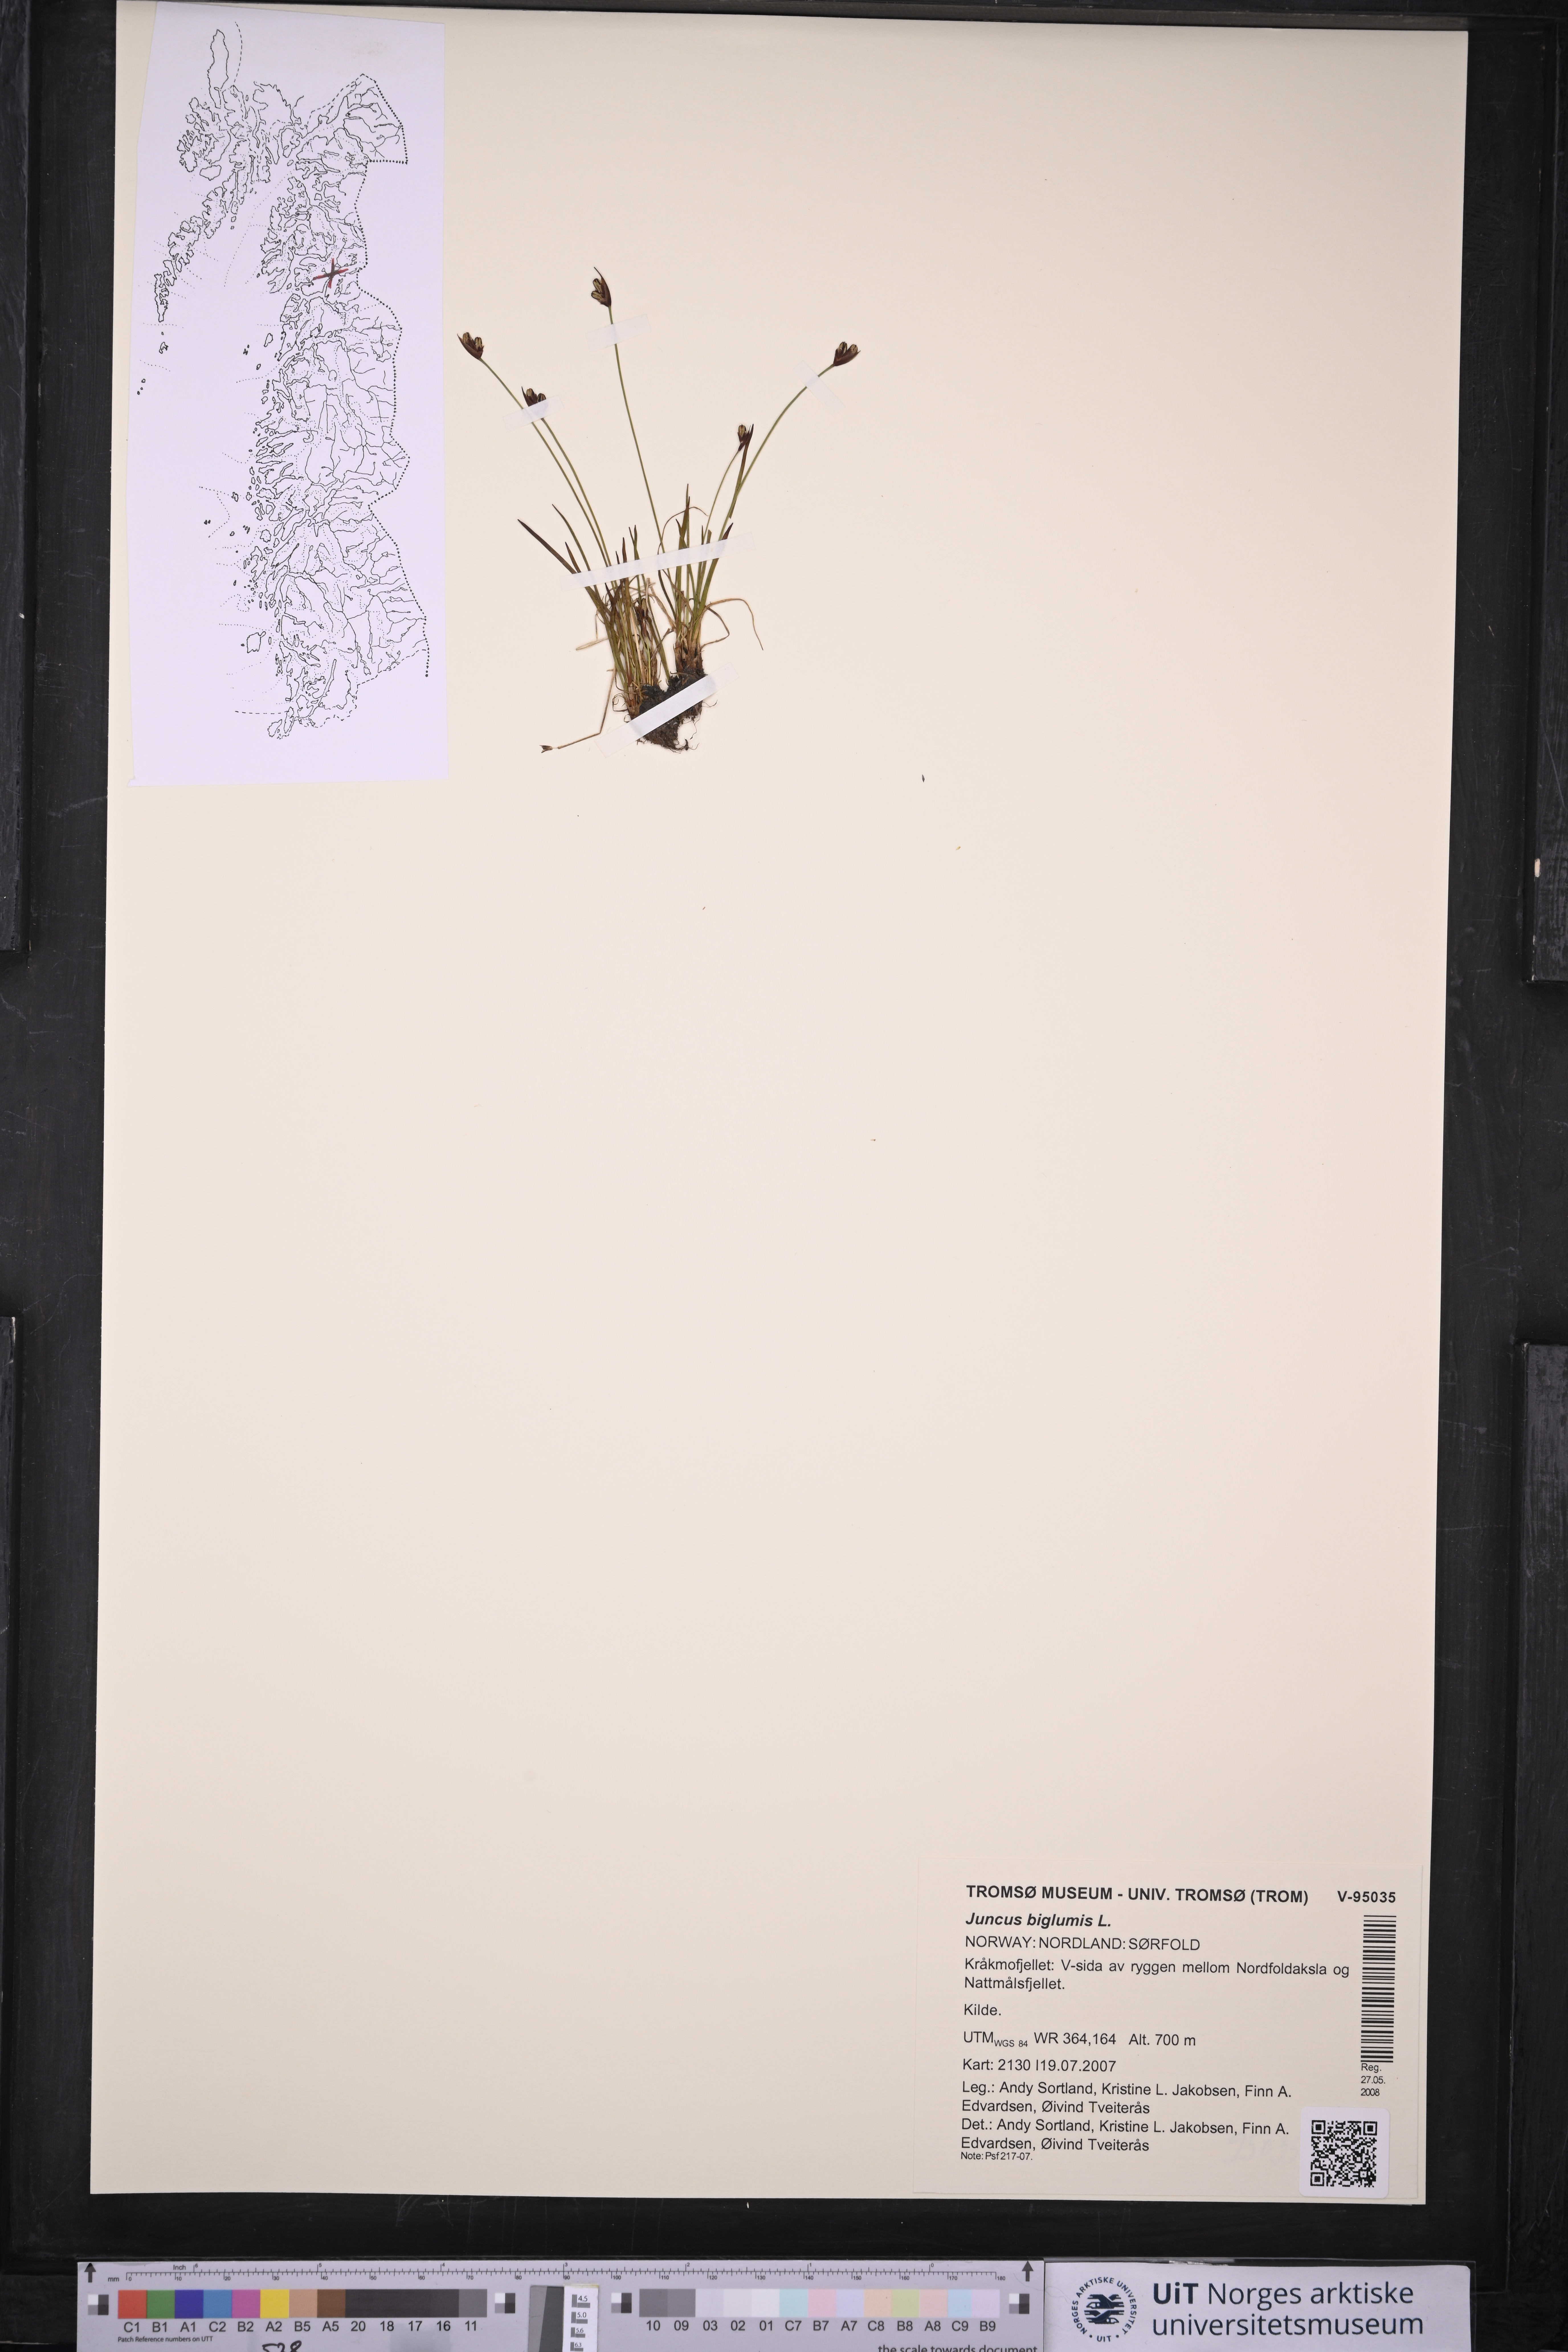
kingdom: Plantae
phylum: Tracheophyta
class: Liliopsida
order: Poales
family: Juncaceae
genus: Juncus
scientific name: Juncus biglumis
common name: Two-flowered rush
